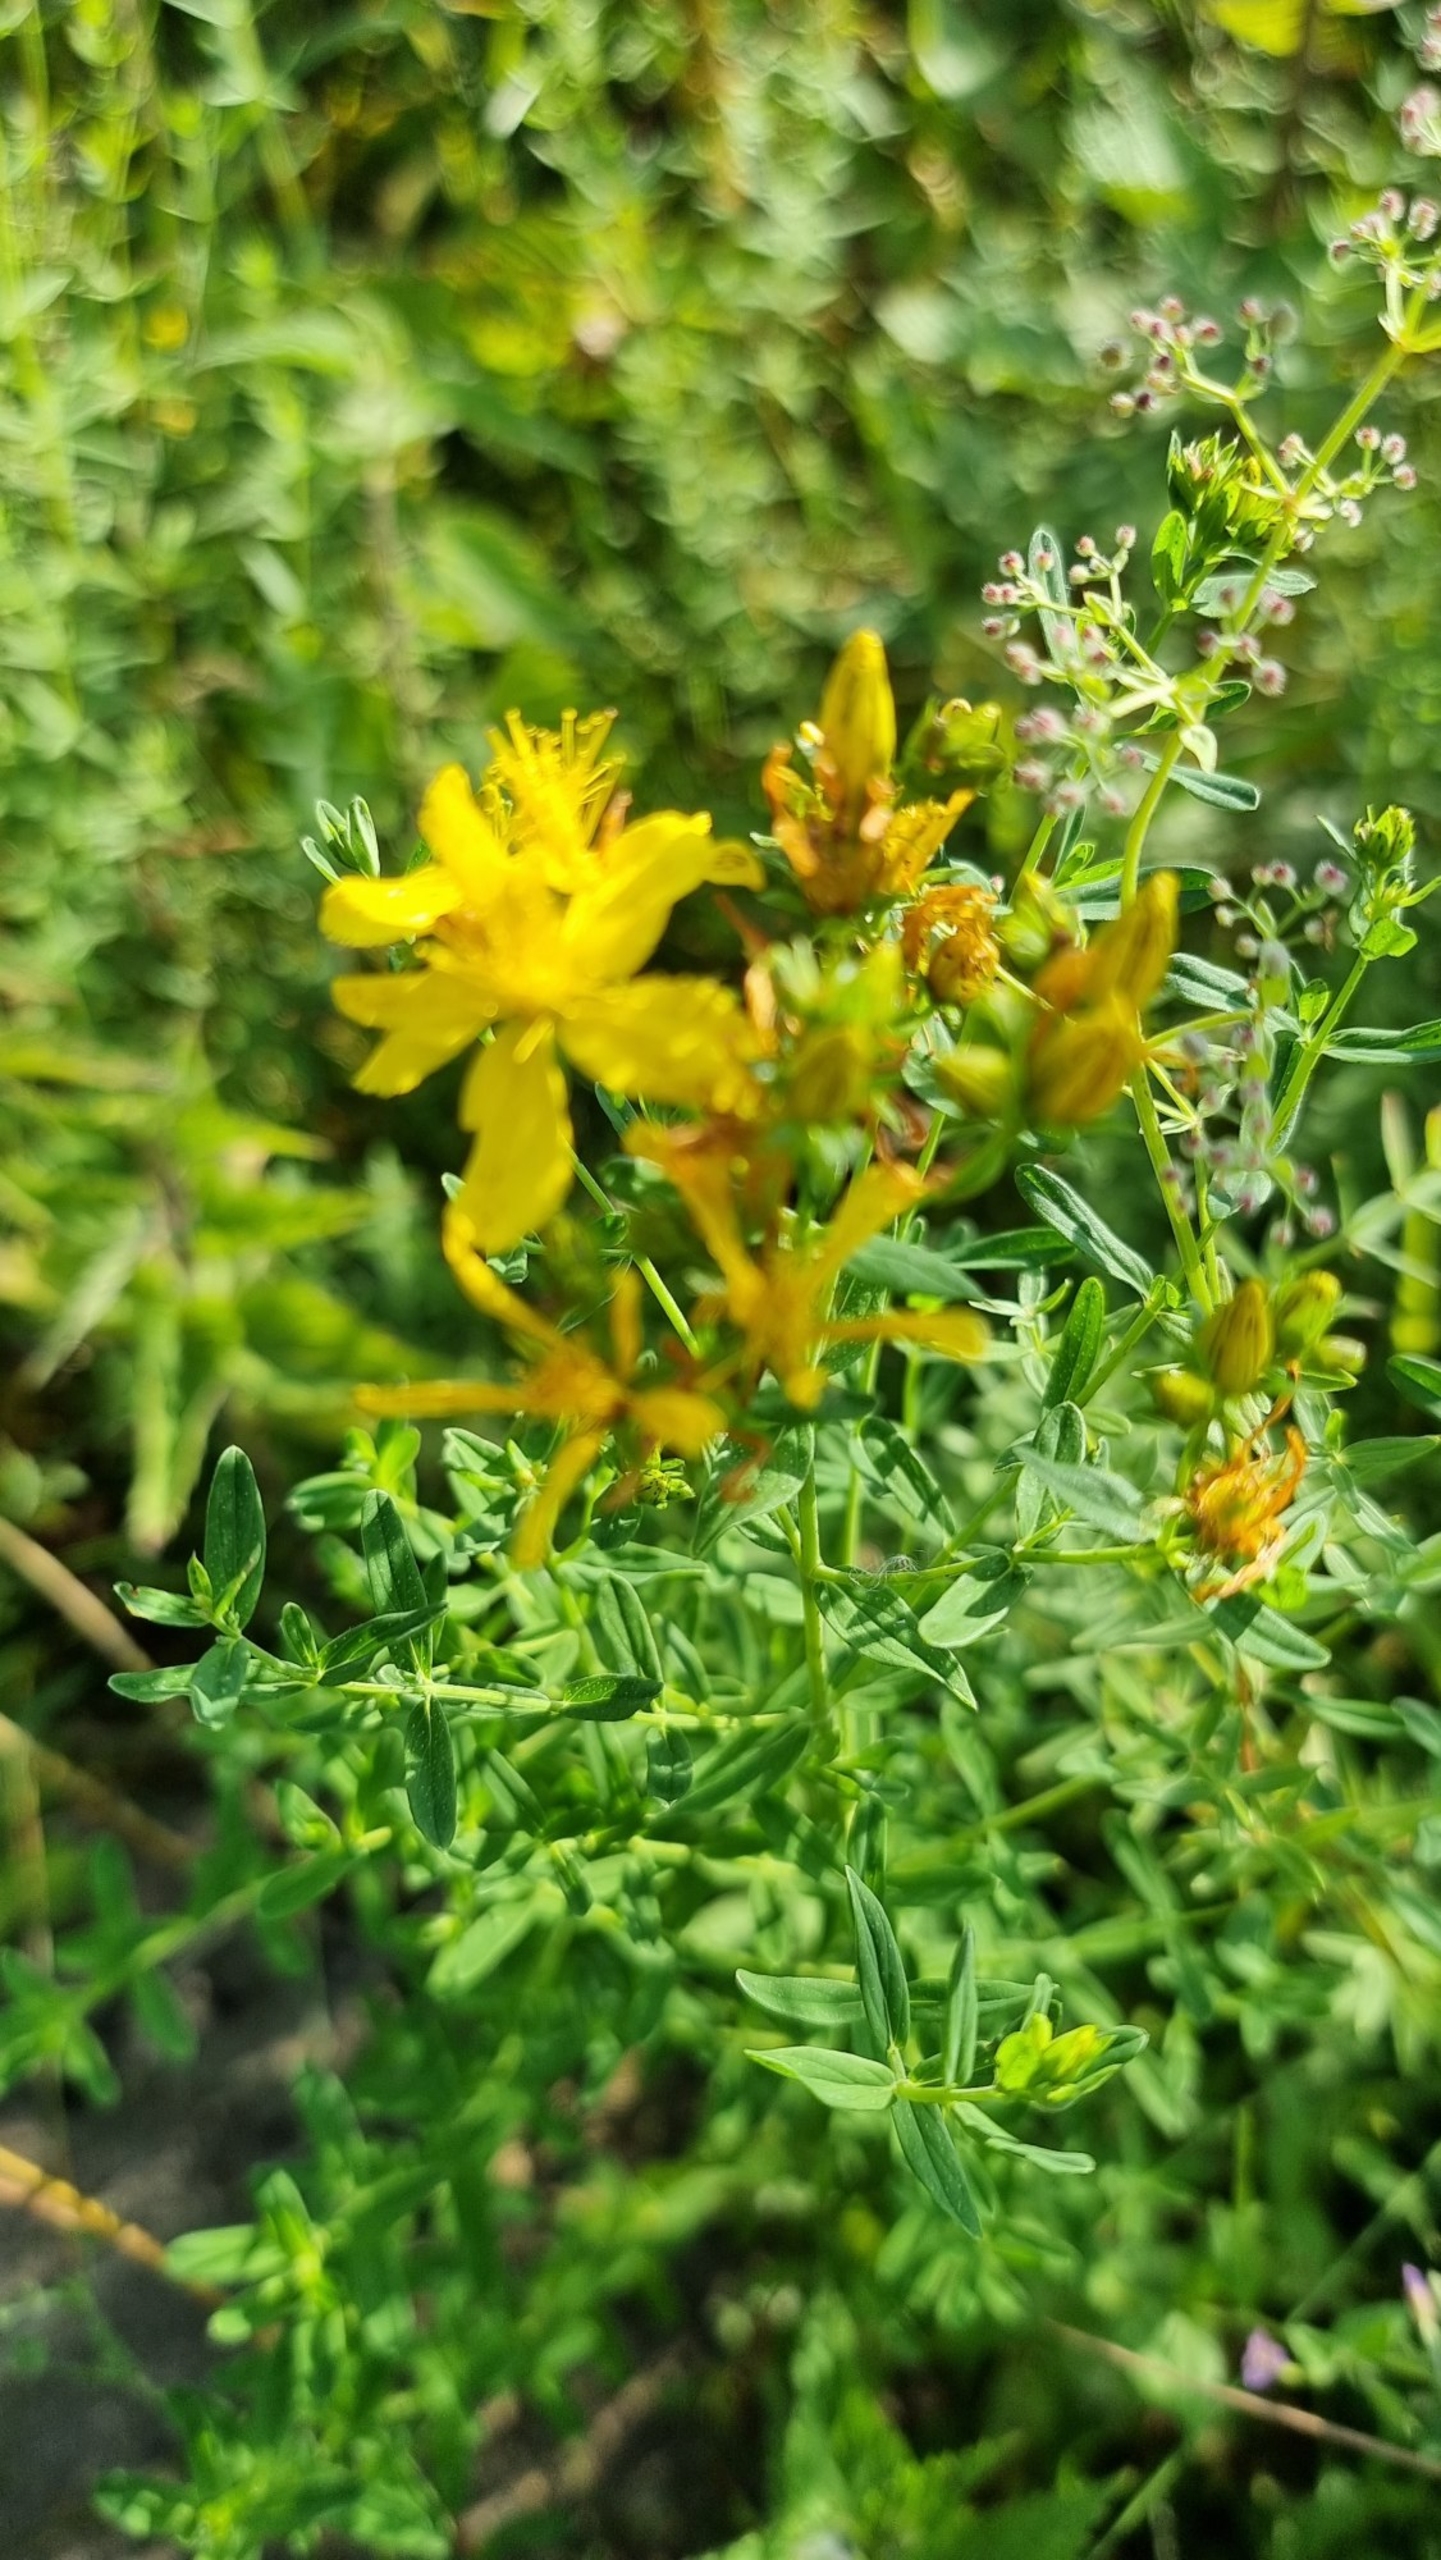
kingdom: Plantae
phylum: Tracheophyta
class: Magnoliopsida
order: Malpighiales
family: Hypericaceae
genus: Hypericum
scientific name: Hypericum perforatum
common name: Prikbladet perikon
